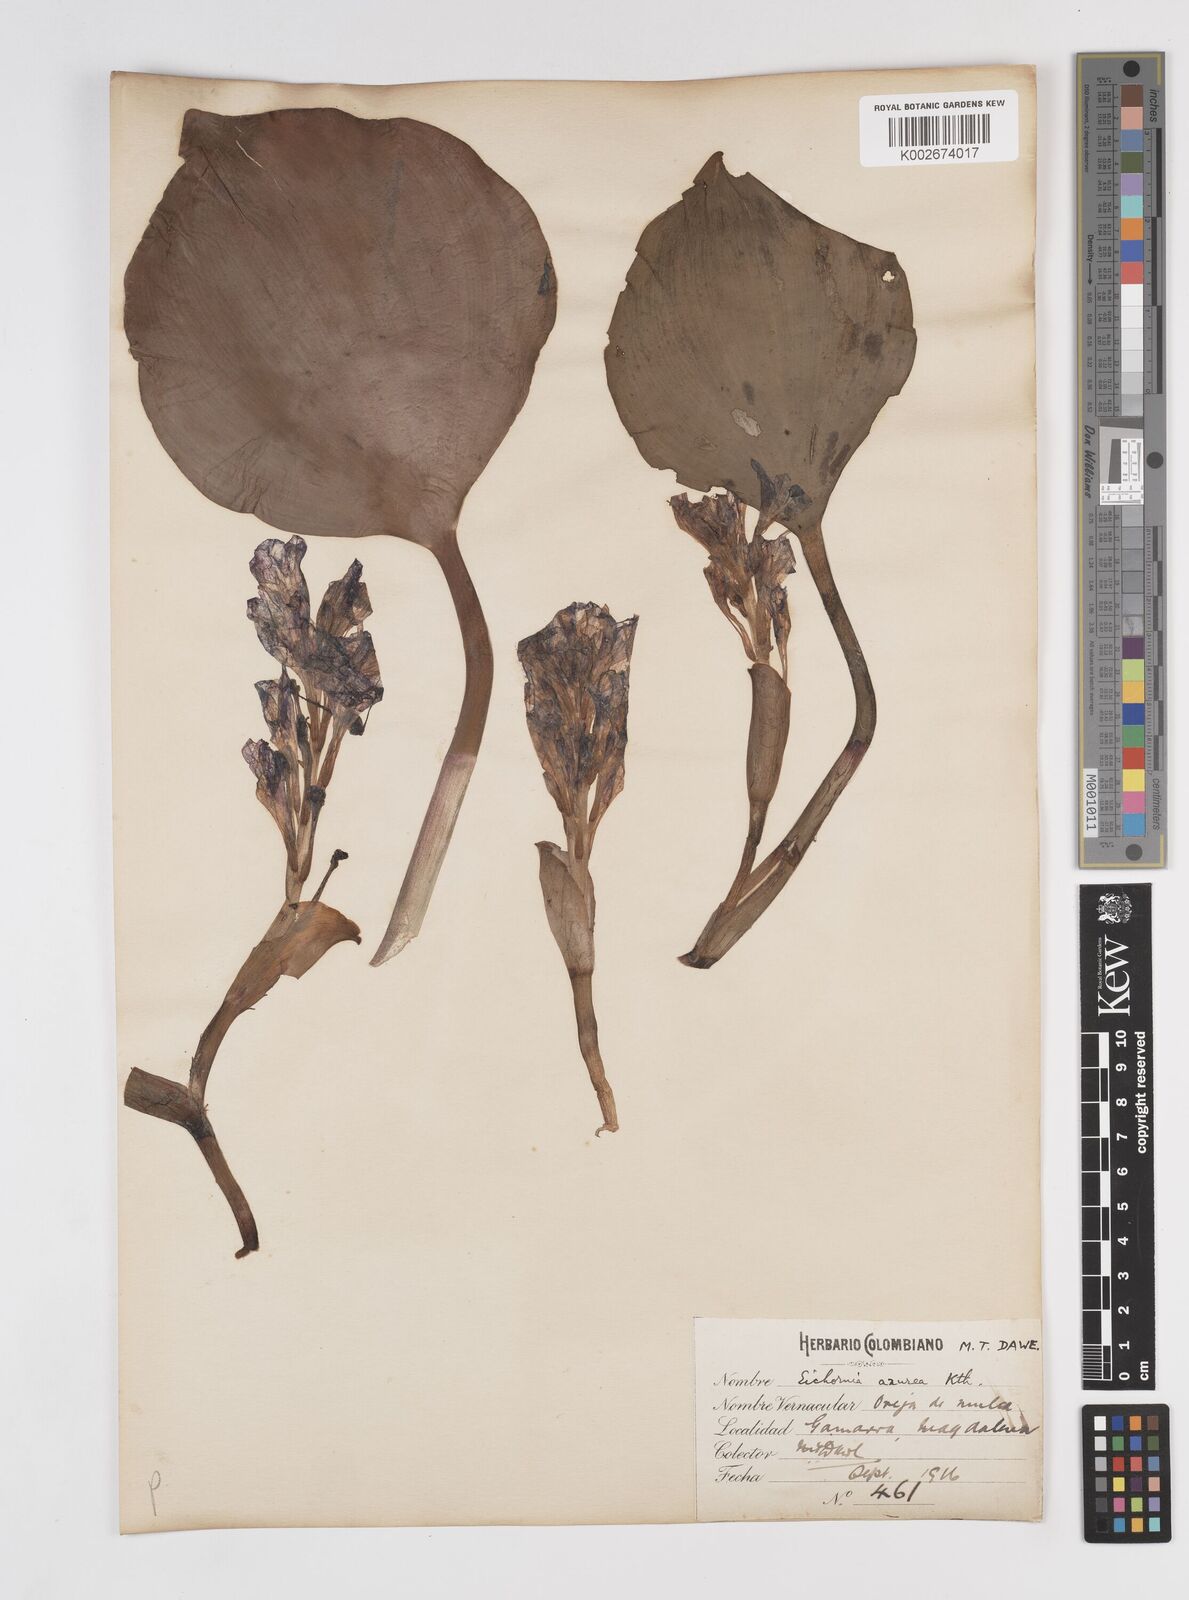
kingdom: Plantae
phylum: Tracheophyta
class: Liliopsida
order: Commelinales
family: Pontederiaceae
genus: Pontederia
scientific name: Pontederia azurea
